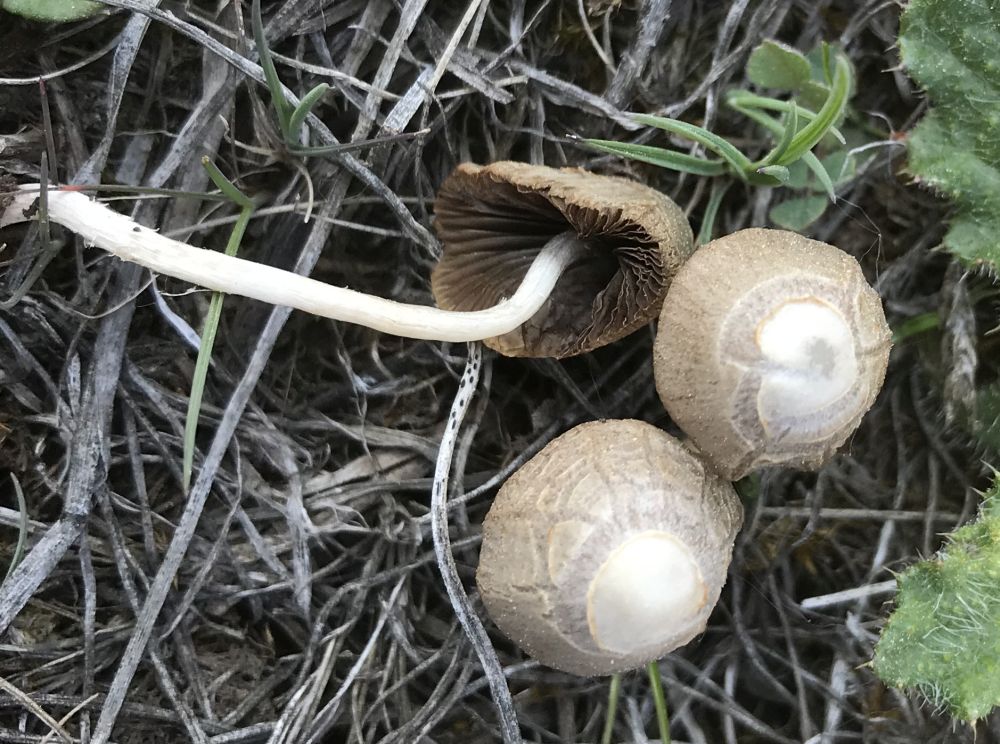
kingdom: Fungi
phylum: Basidiomycota
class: Agaricomycetes
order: Agaricales
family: Psathyrellaceae
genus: Psathyrella
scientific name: Psathyrella
